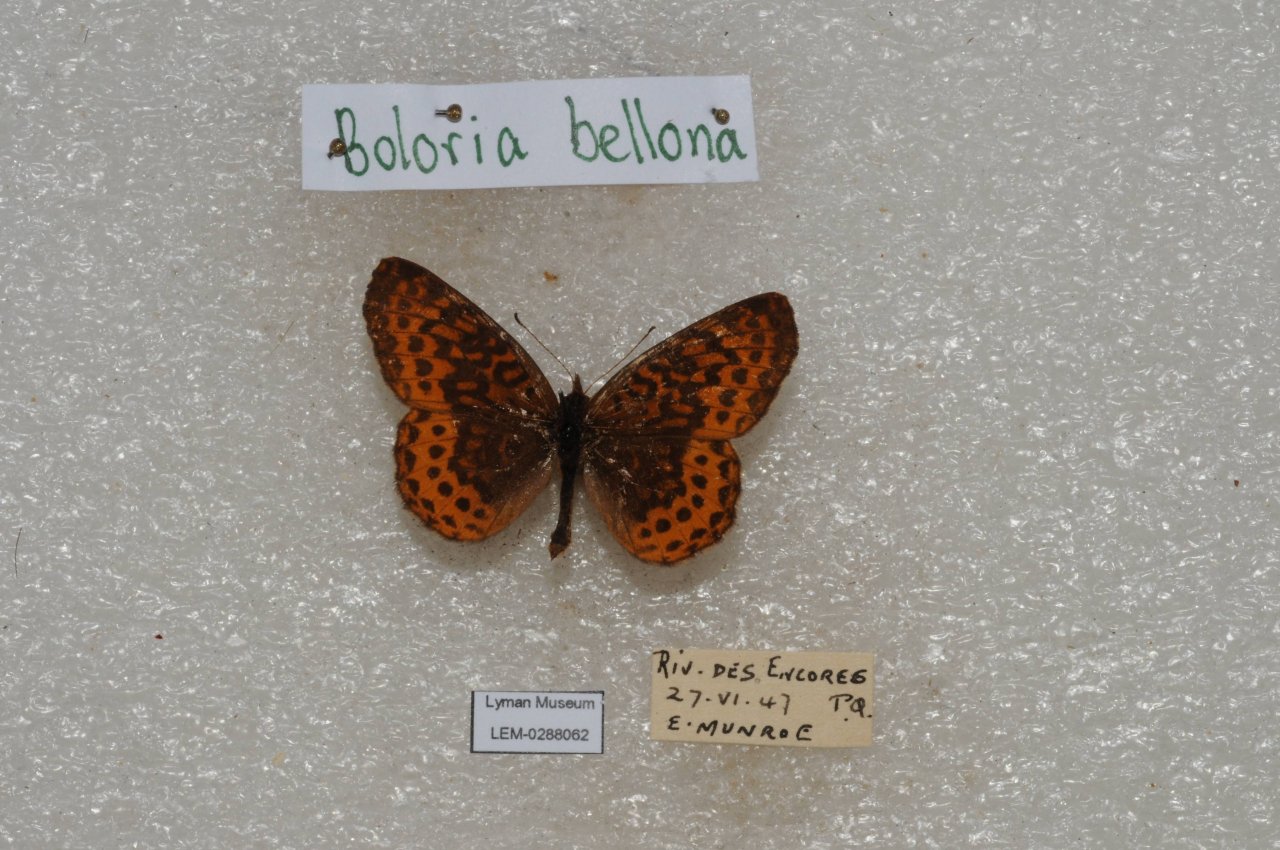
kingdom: Animalia
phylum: Arthropoda
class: Insecta
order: Lepidoptera
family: Nymphalidae
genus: Clossiana
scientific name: Clossiana toddi
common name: Meadow Fritillary
